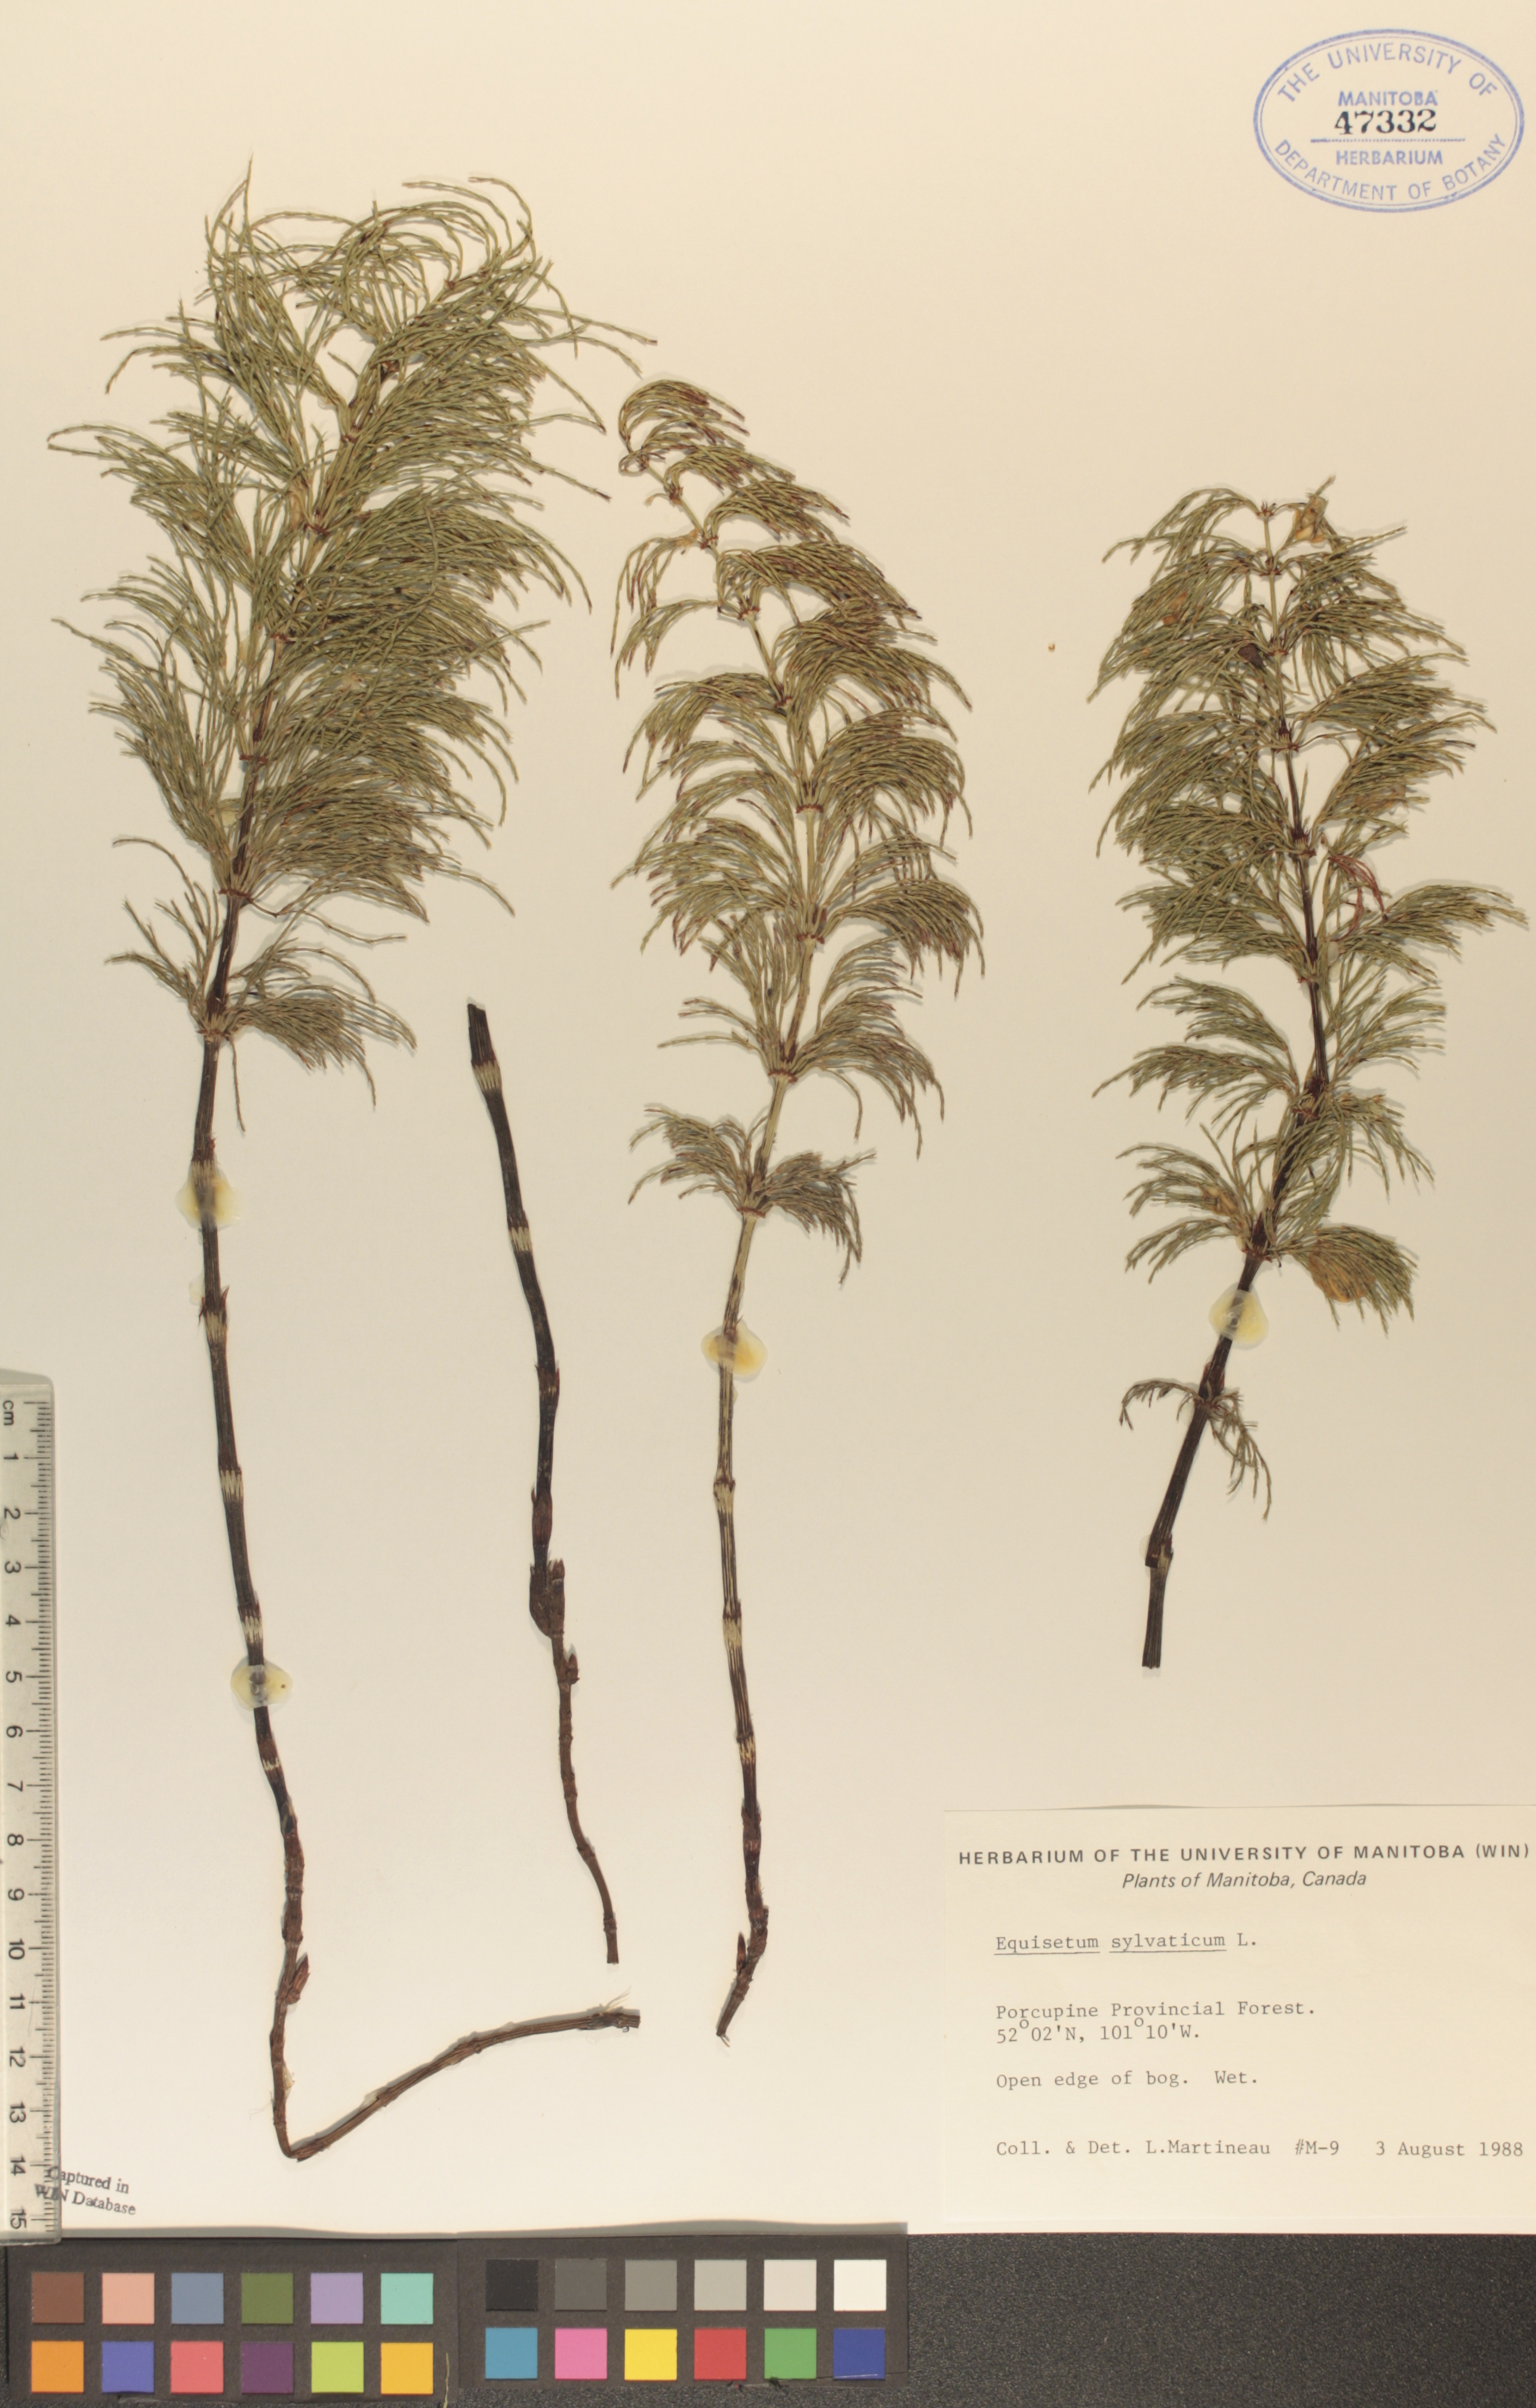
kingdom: Plantae
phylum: Tracheophyta
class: Polypodiopsida
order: Equisetales
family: Equisetaceae
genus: Equisetum
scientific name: Equisetum sylvaticum
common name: Wood horsetail
